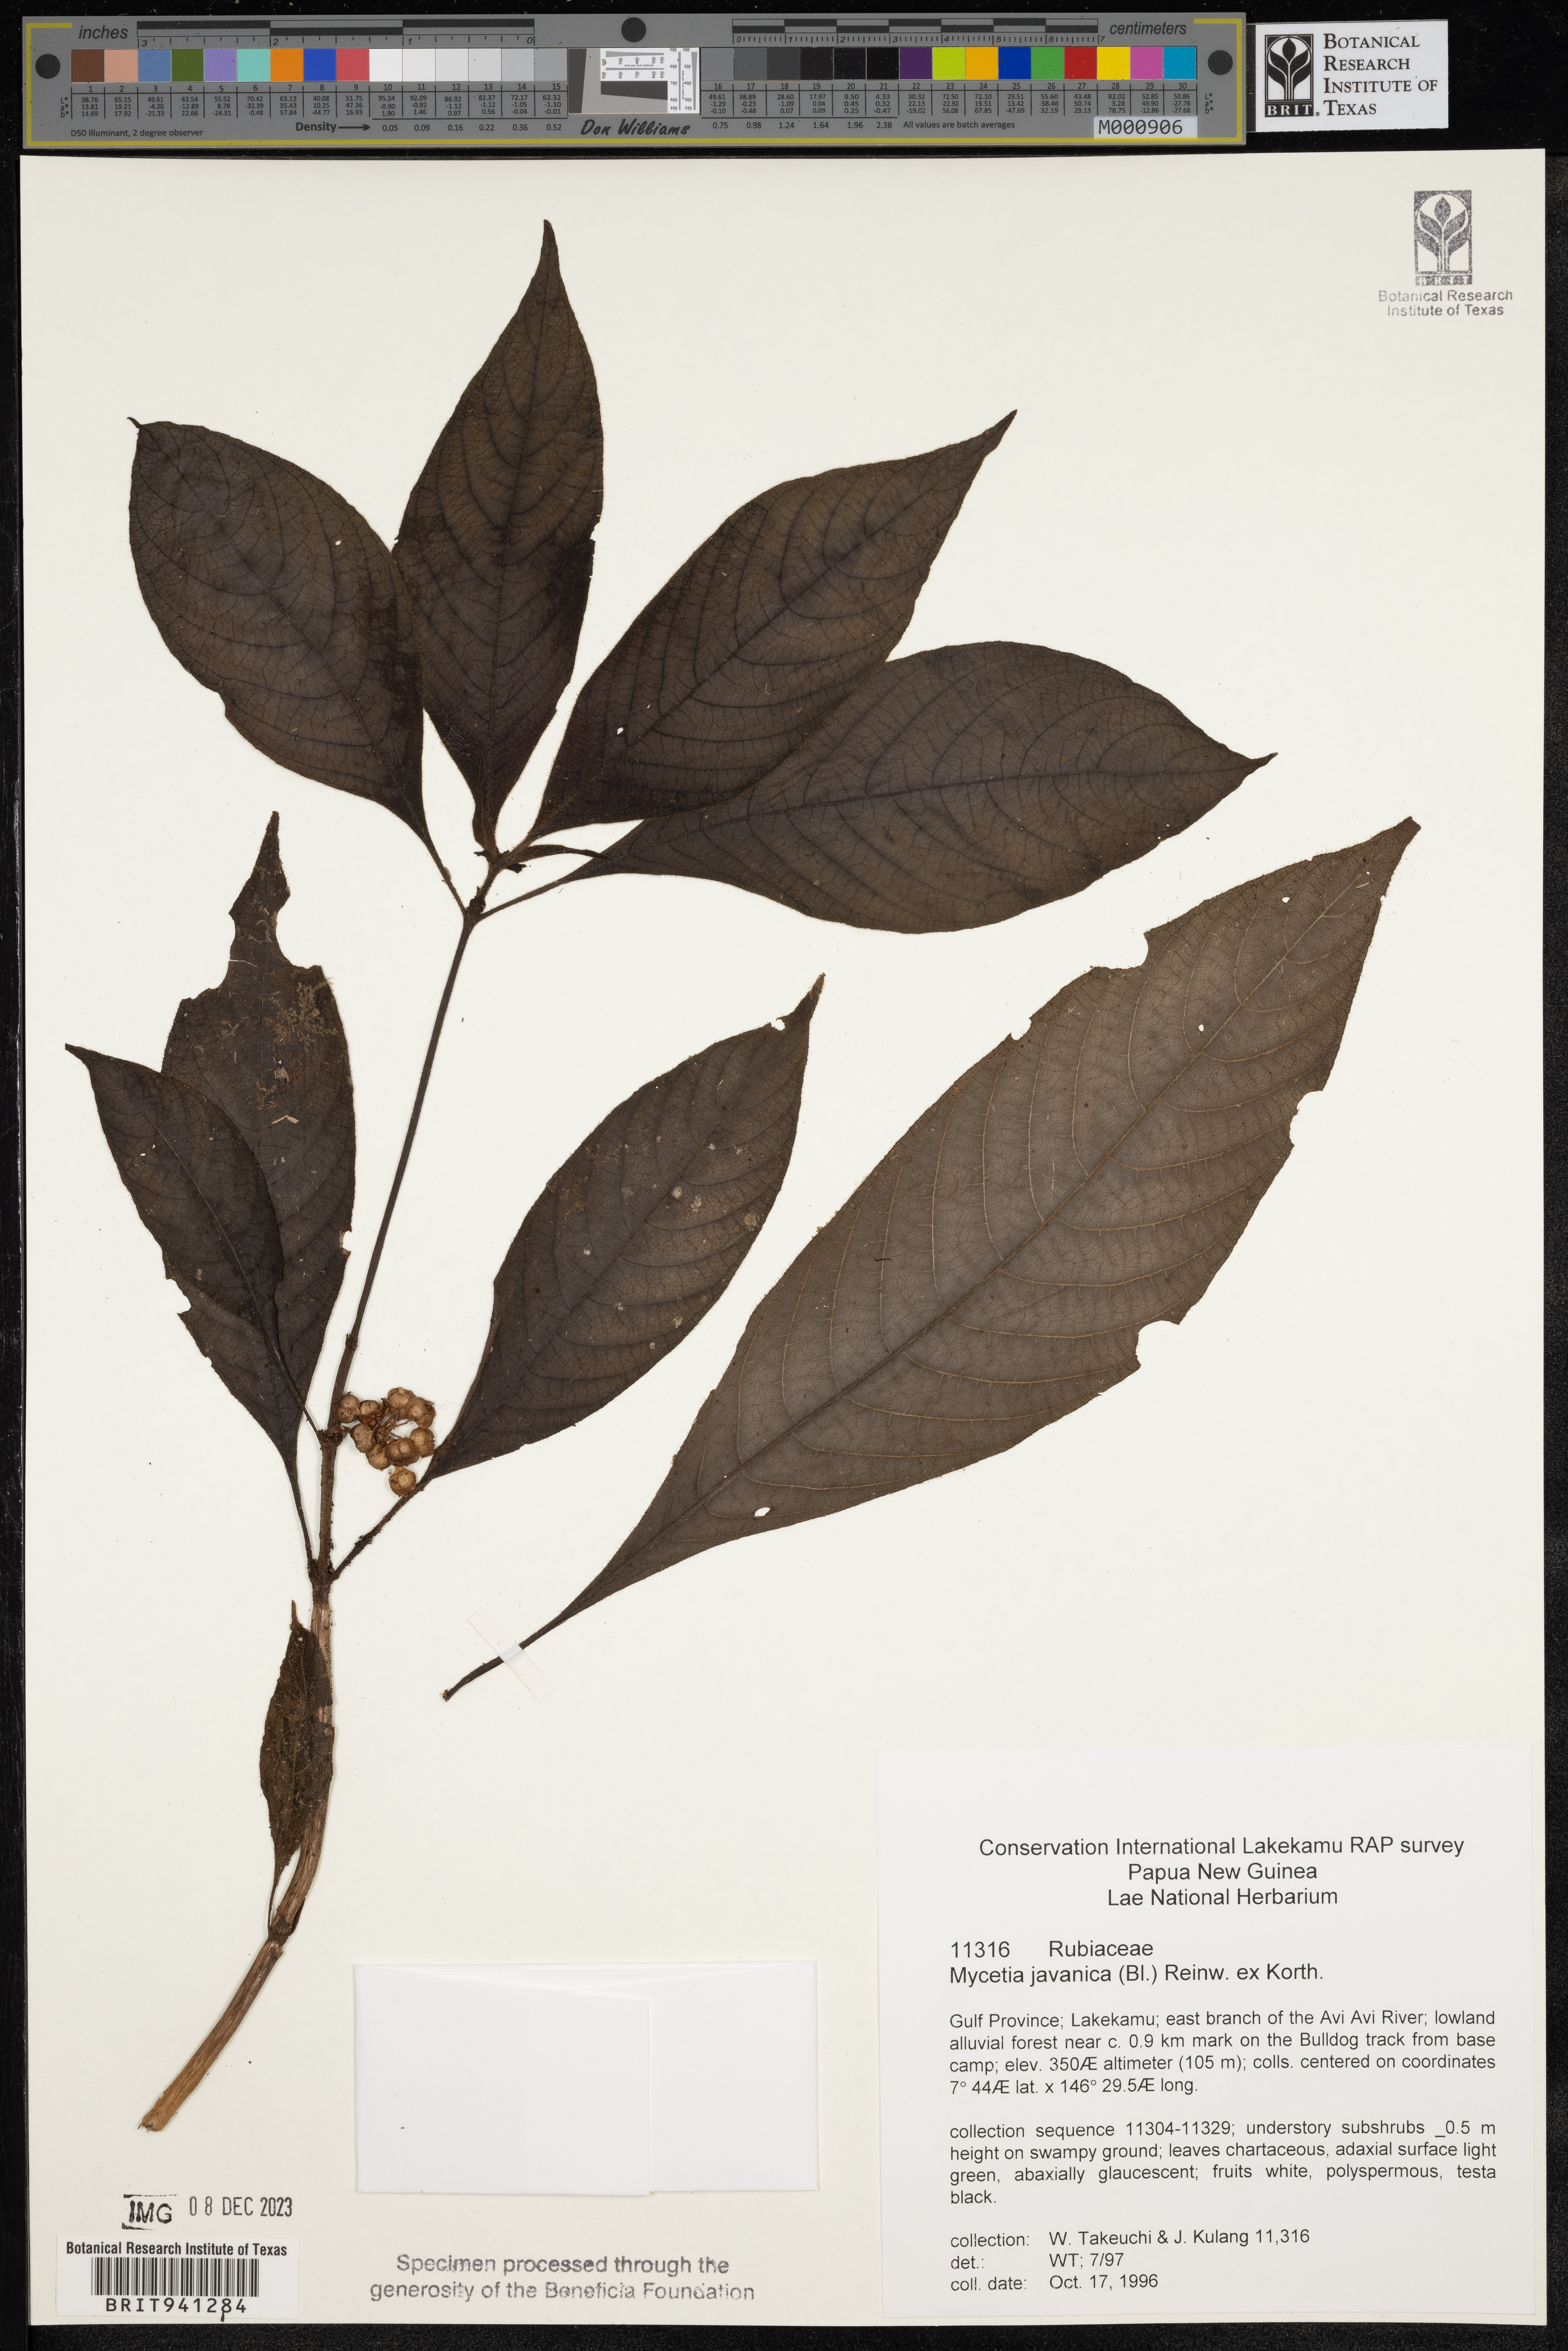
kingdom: Plantae
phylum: Tracheophyta
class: Magnoliopsida
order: Gentianales
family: Rubiaceae
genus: Mycetia
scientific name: Mycetia
